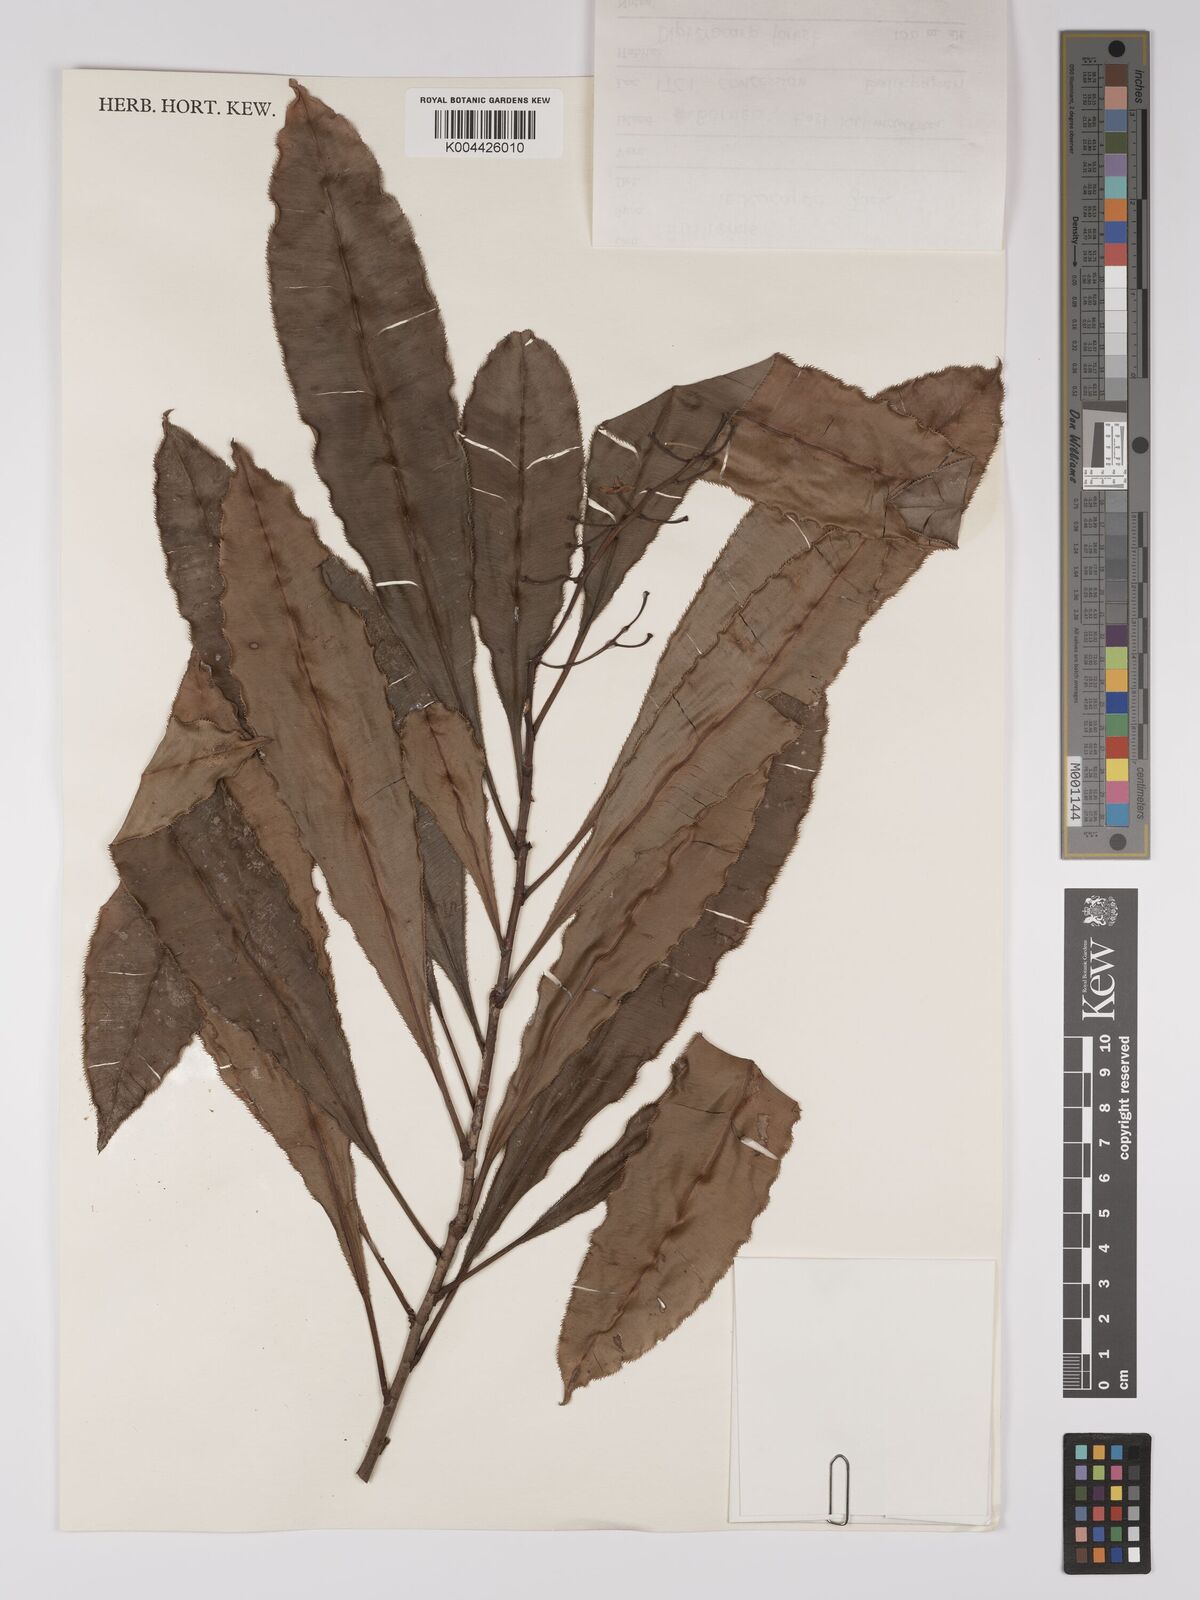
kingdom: Plantae
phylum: Tracheophyta
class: Magnoliopsida
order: Malpighiales
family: Ochnaceae
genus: Euthemis
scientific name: Euthemis leucocarpa
